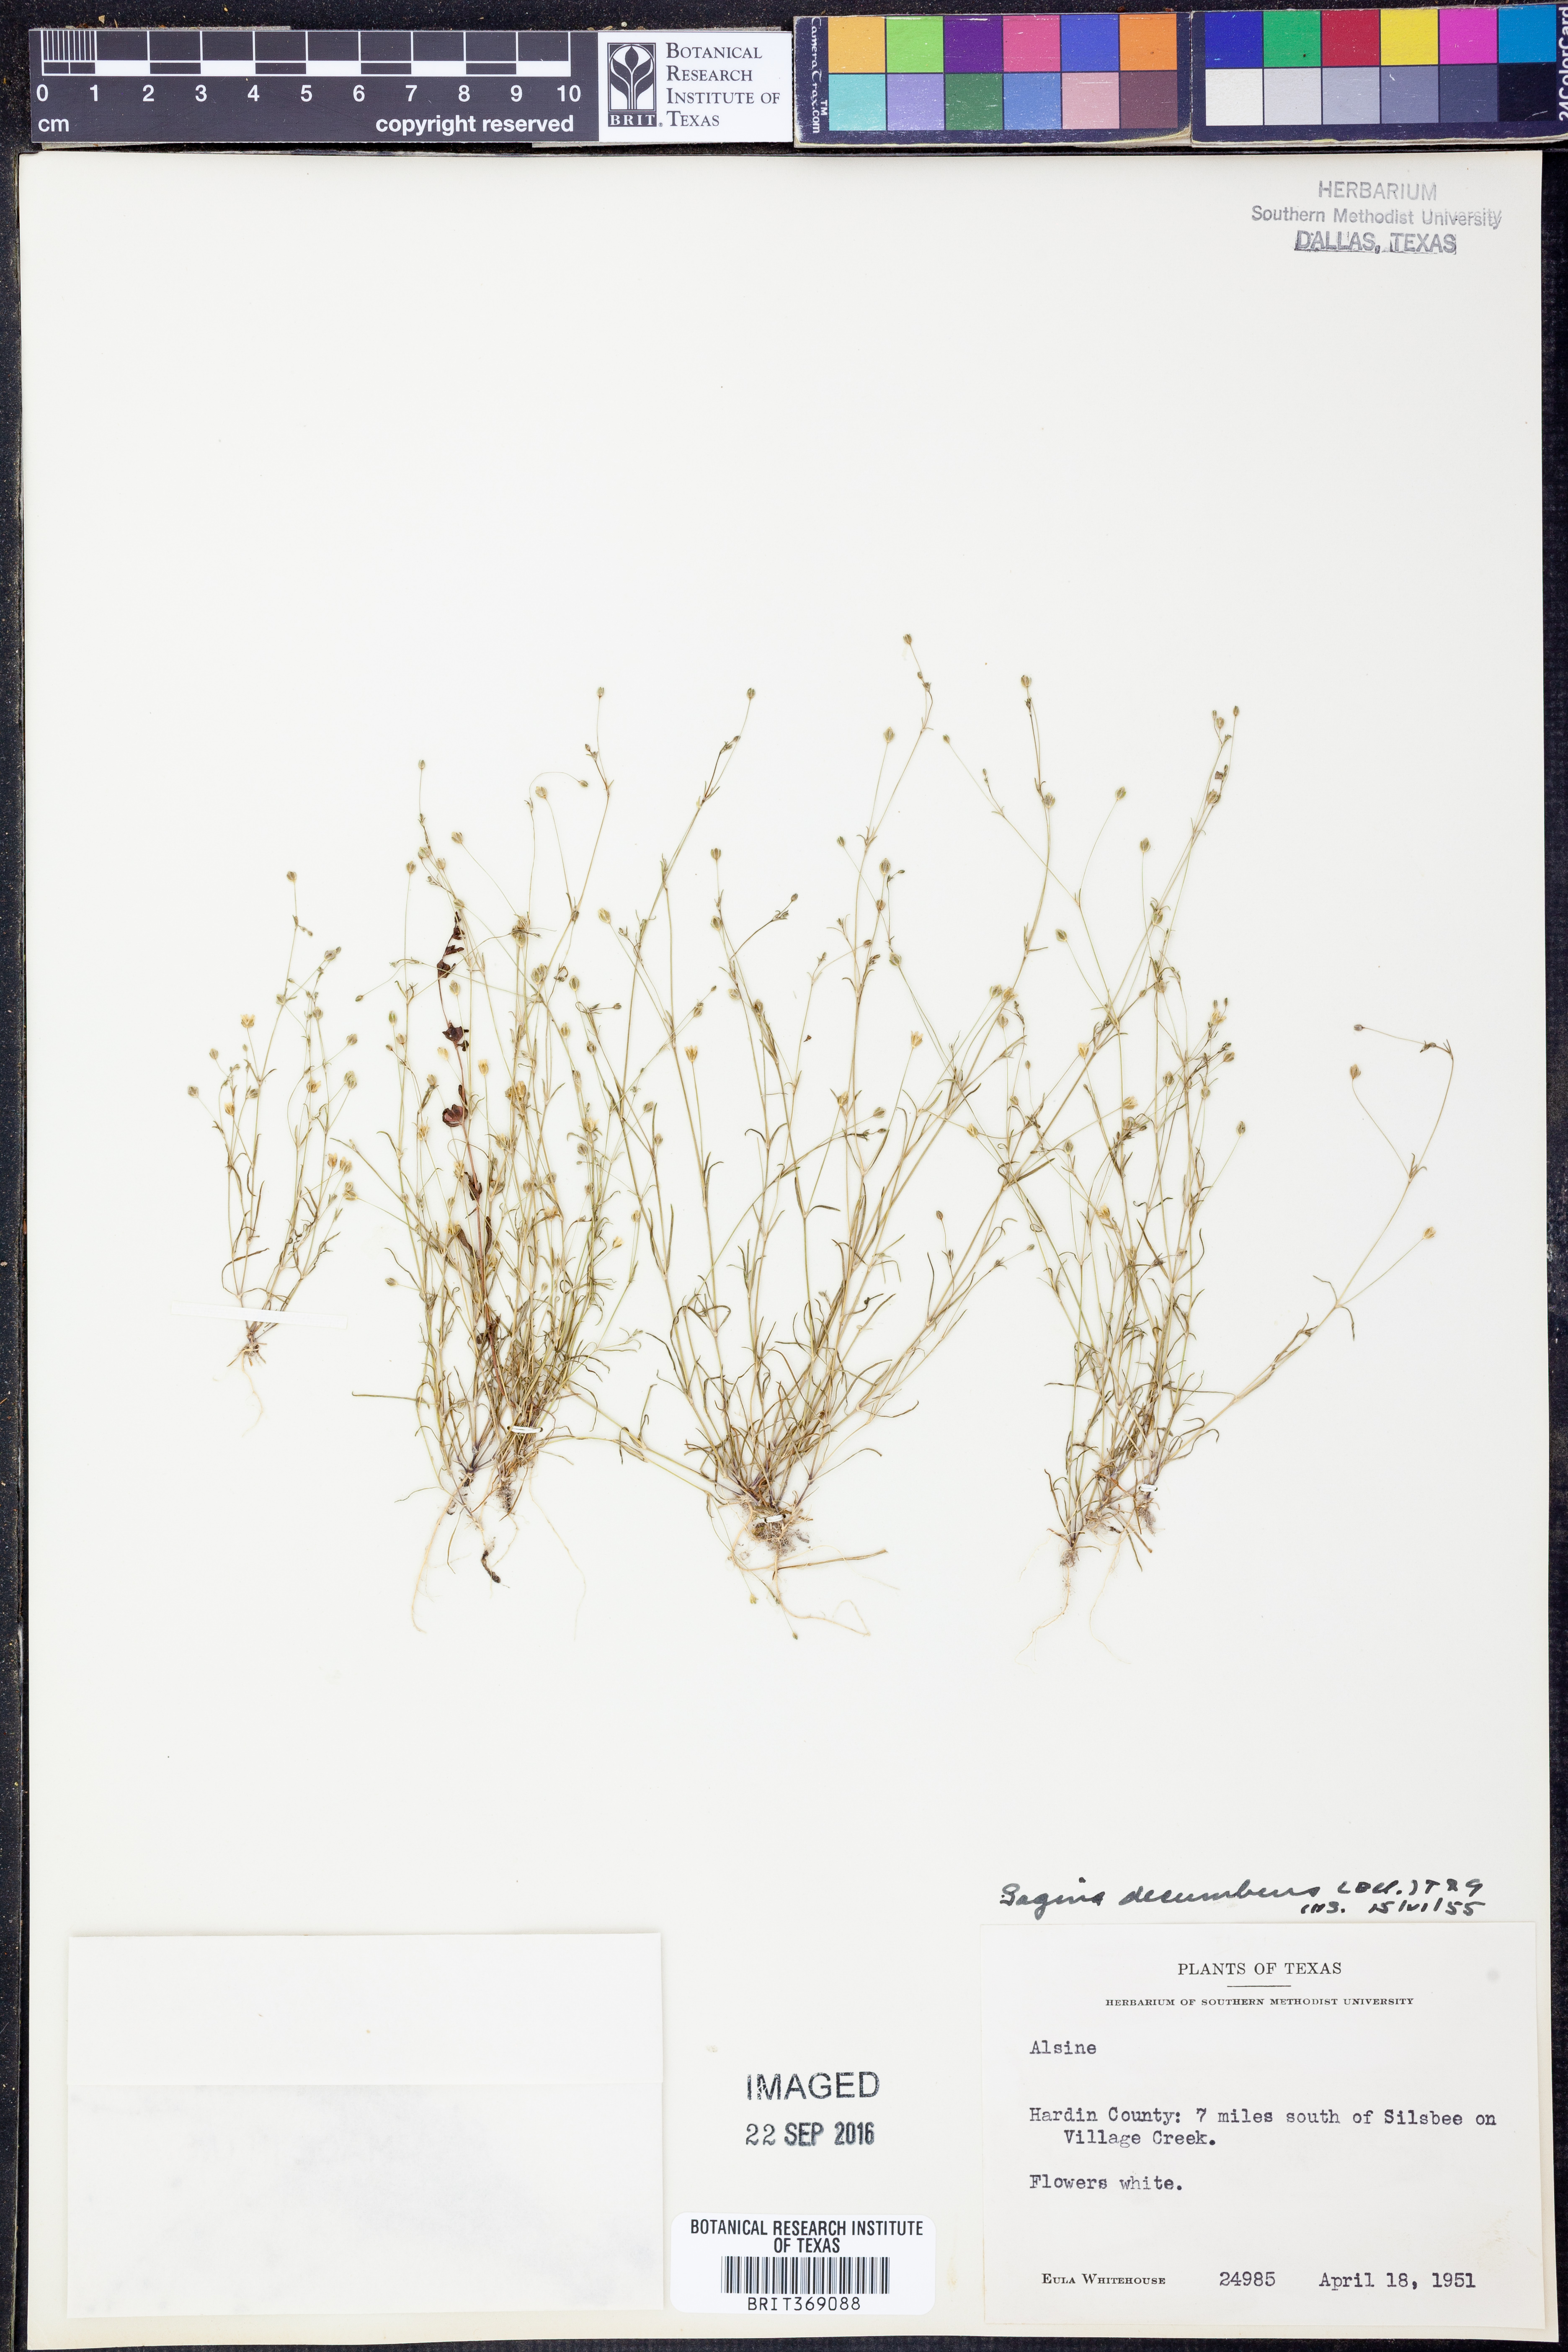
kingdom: Plantae
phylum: Tracheophyta
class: Magnoliopsida
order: Caryophyllales
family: Caryophyllaceae
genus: Sagina
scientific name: Sagina decumbens
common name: Decumbent pearlwort
